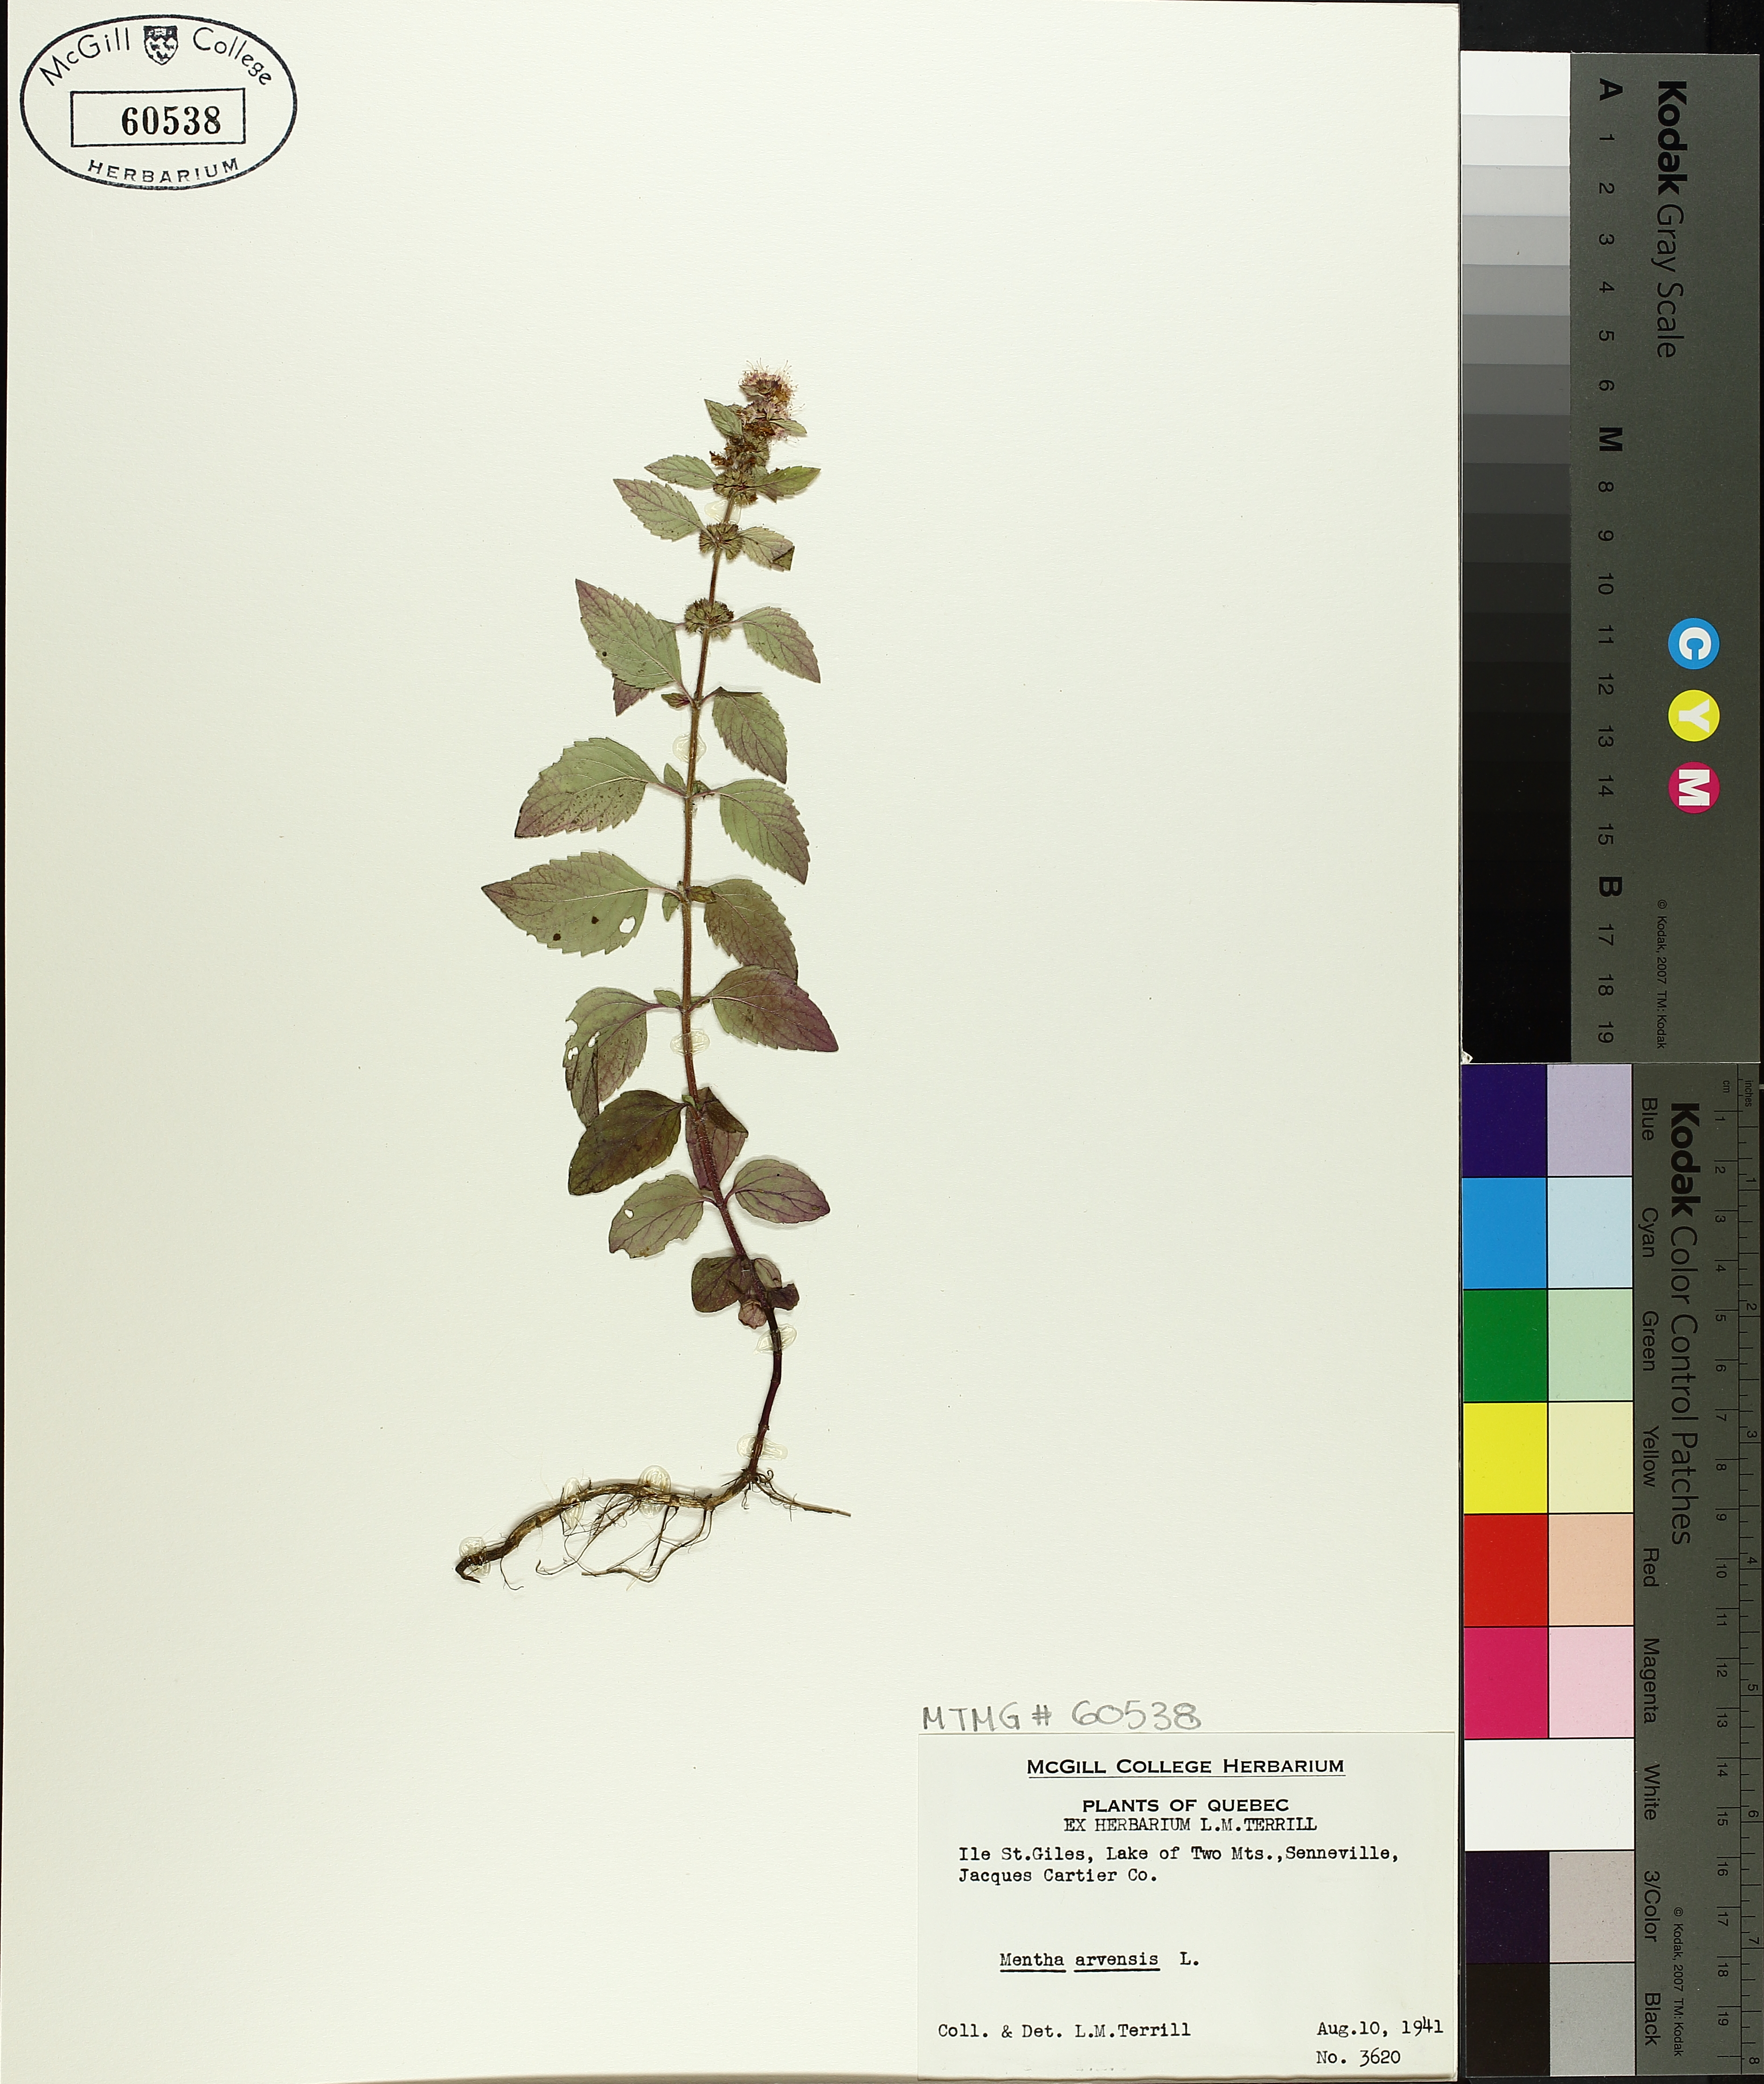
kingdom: Plantae
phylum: Tracheophyta
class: Magnoliopsida
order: Lamiales
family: Lamiaceae
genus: Mentha
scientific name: Mentha arvensis
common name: Corn mint
